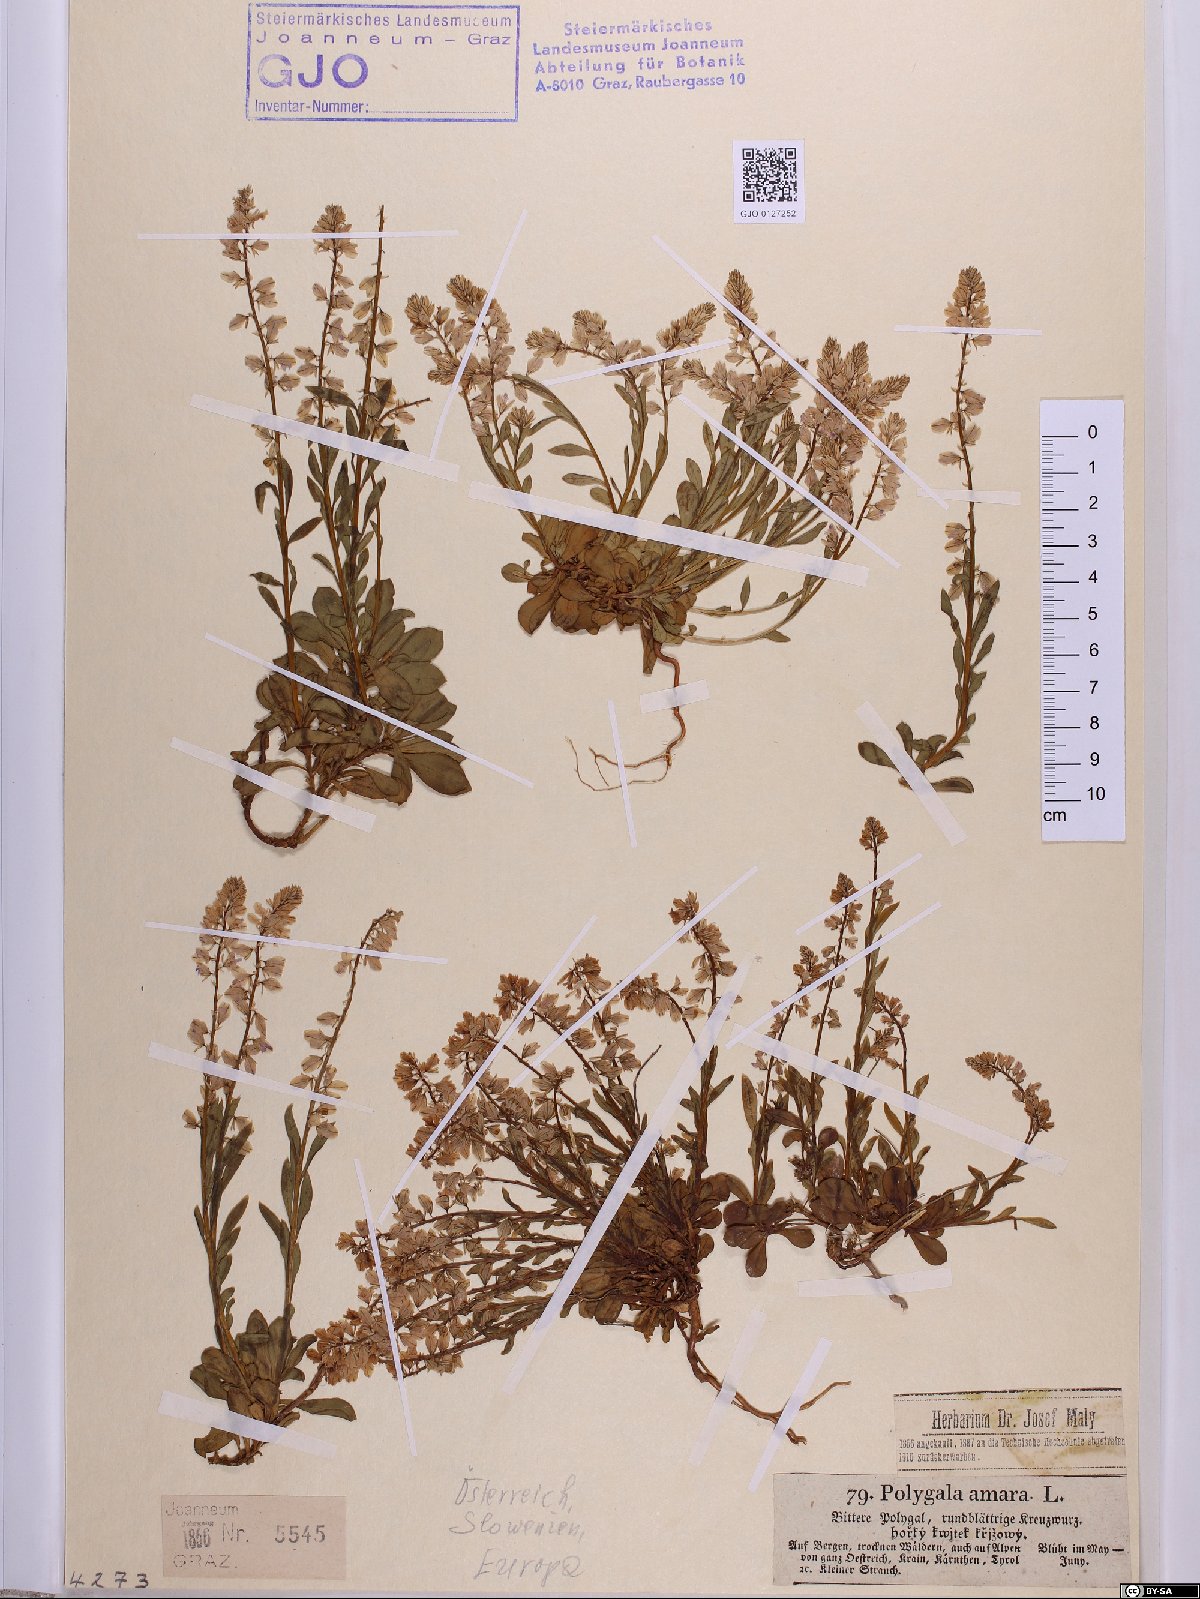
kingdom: Plantae
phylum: Tracheophyta
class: Magnoliopsida
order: Fabales
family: Polygalaceae
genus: Polygala
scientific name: Polygala amara
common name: Milkwort
